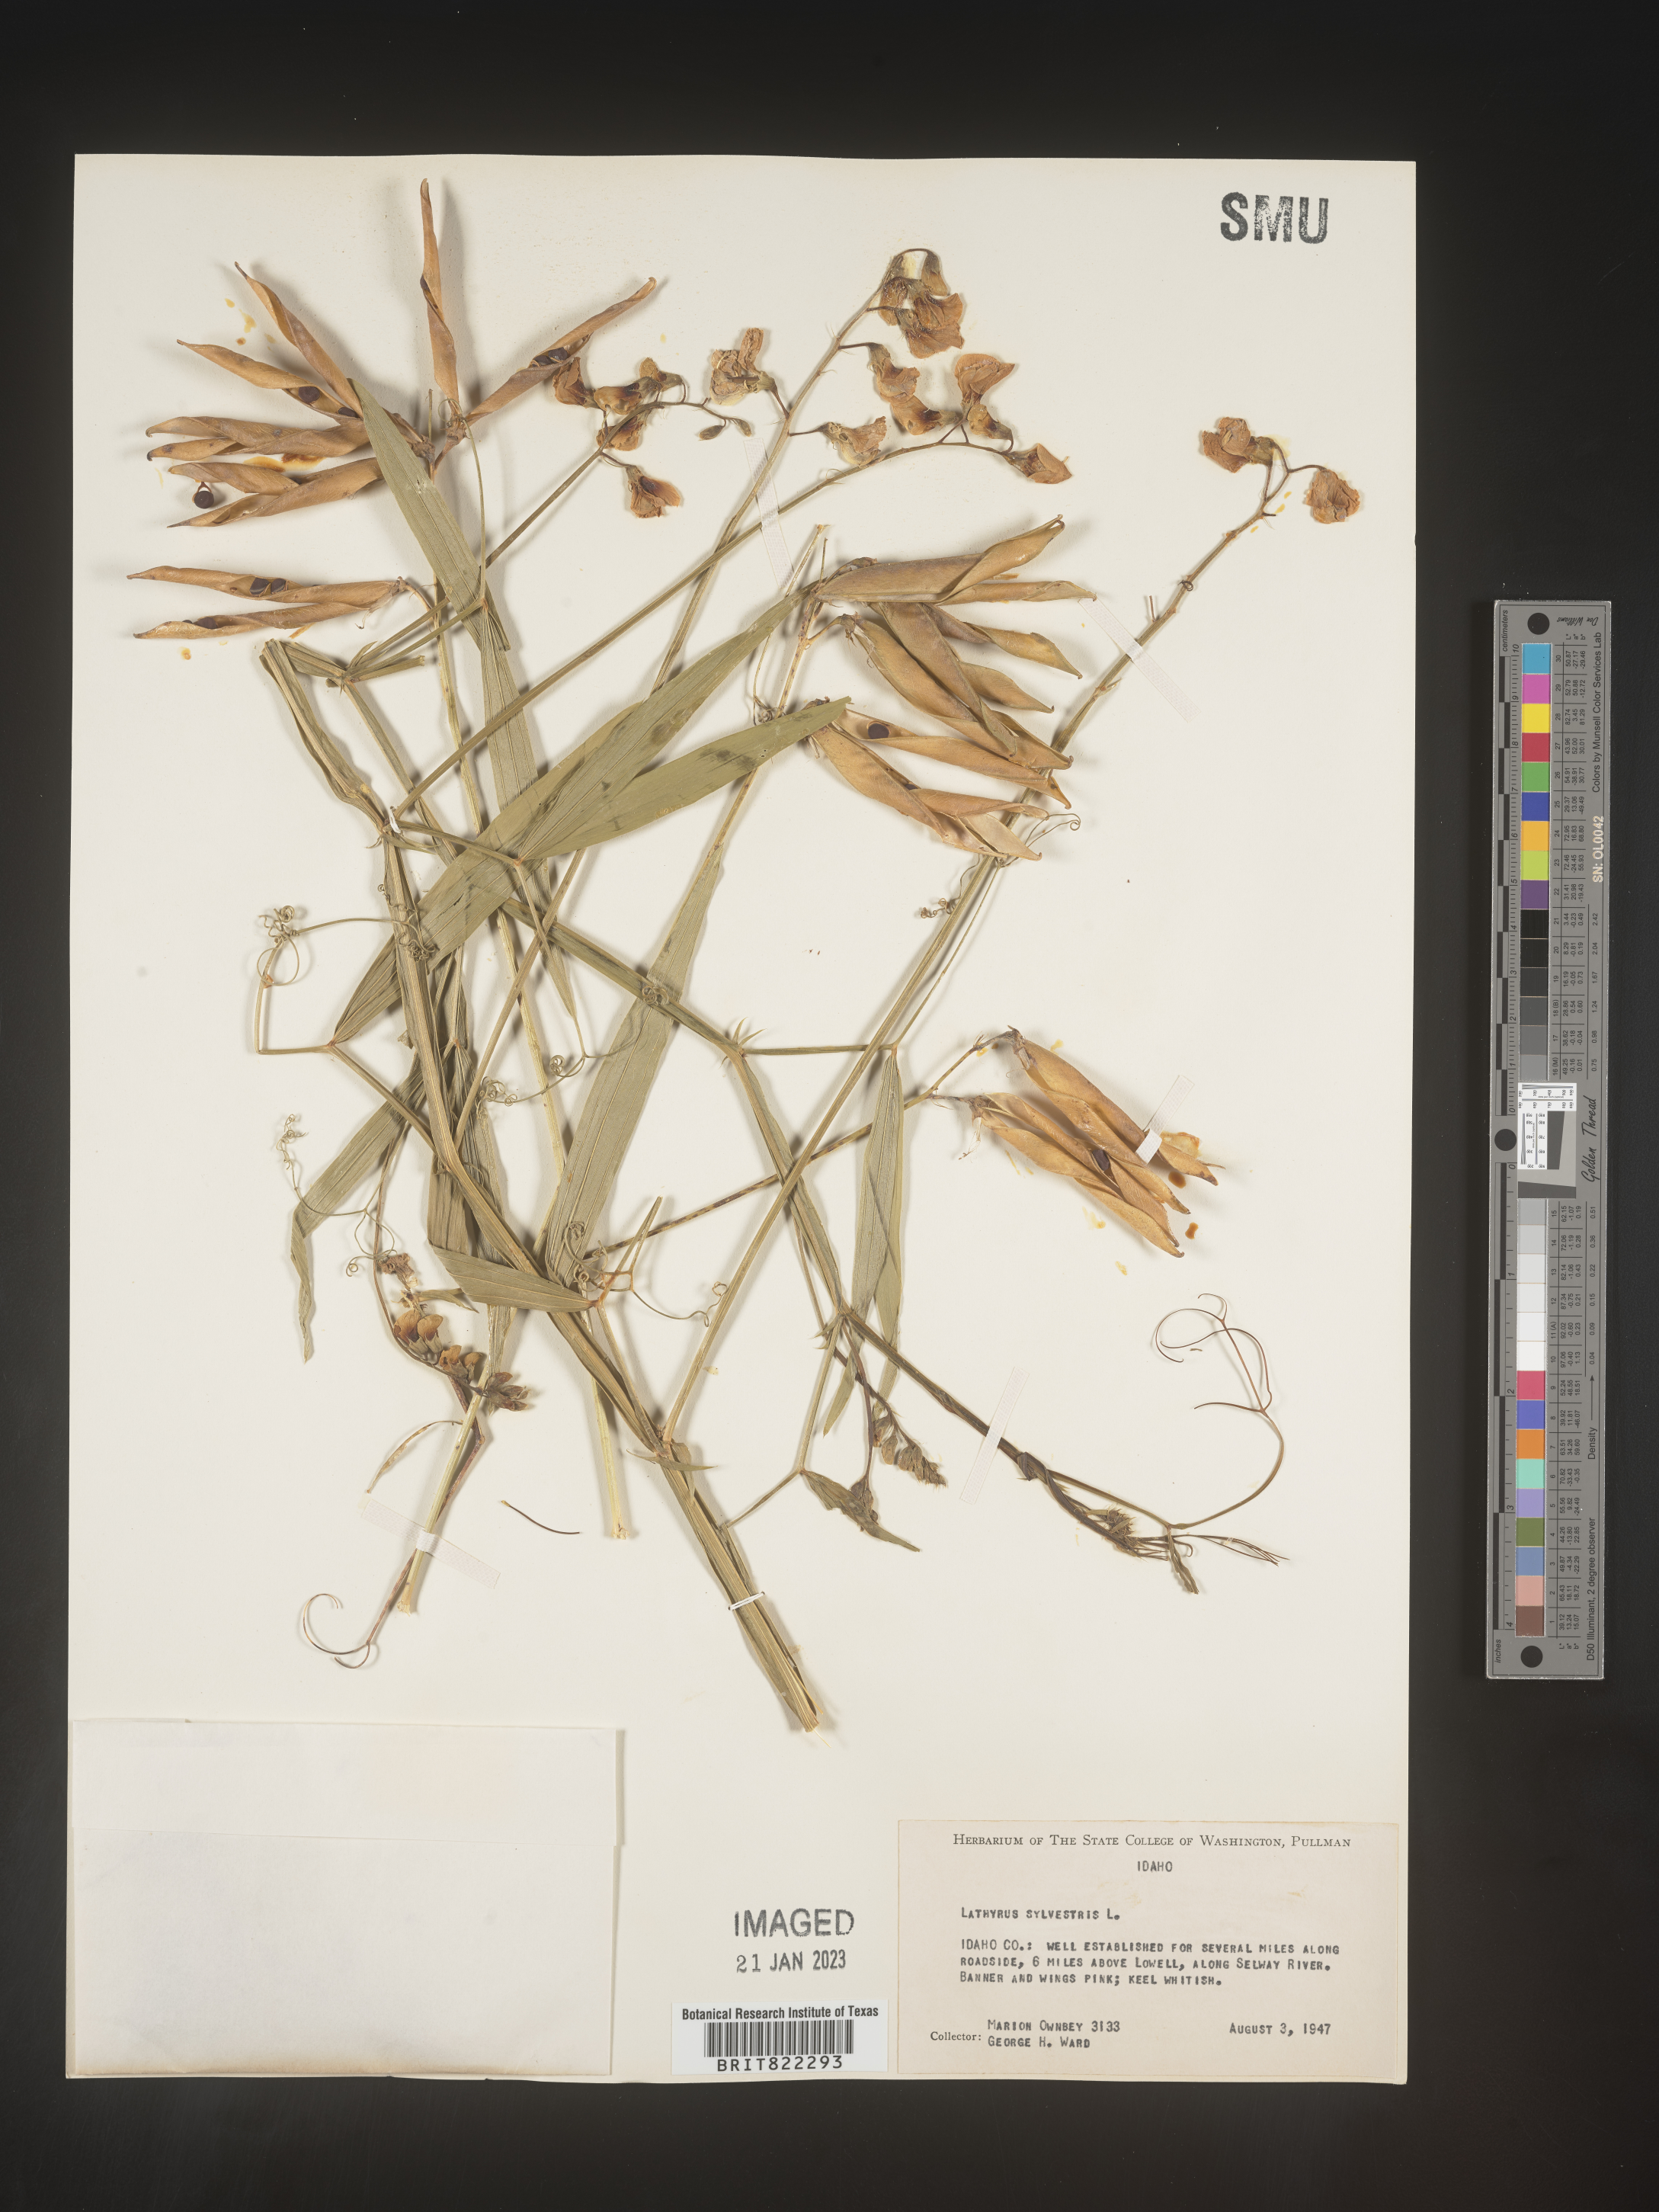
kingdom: Plantae
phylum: Tracheophyta
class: Magnoliopsida
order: Fabales
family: Fabaceae
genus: Lathyrus
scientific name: Lathyrus
